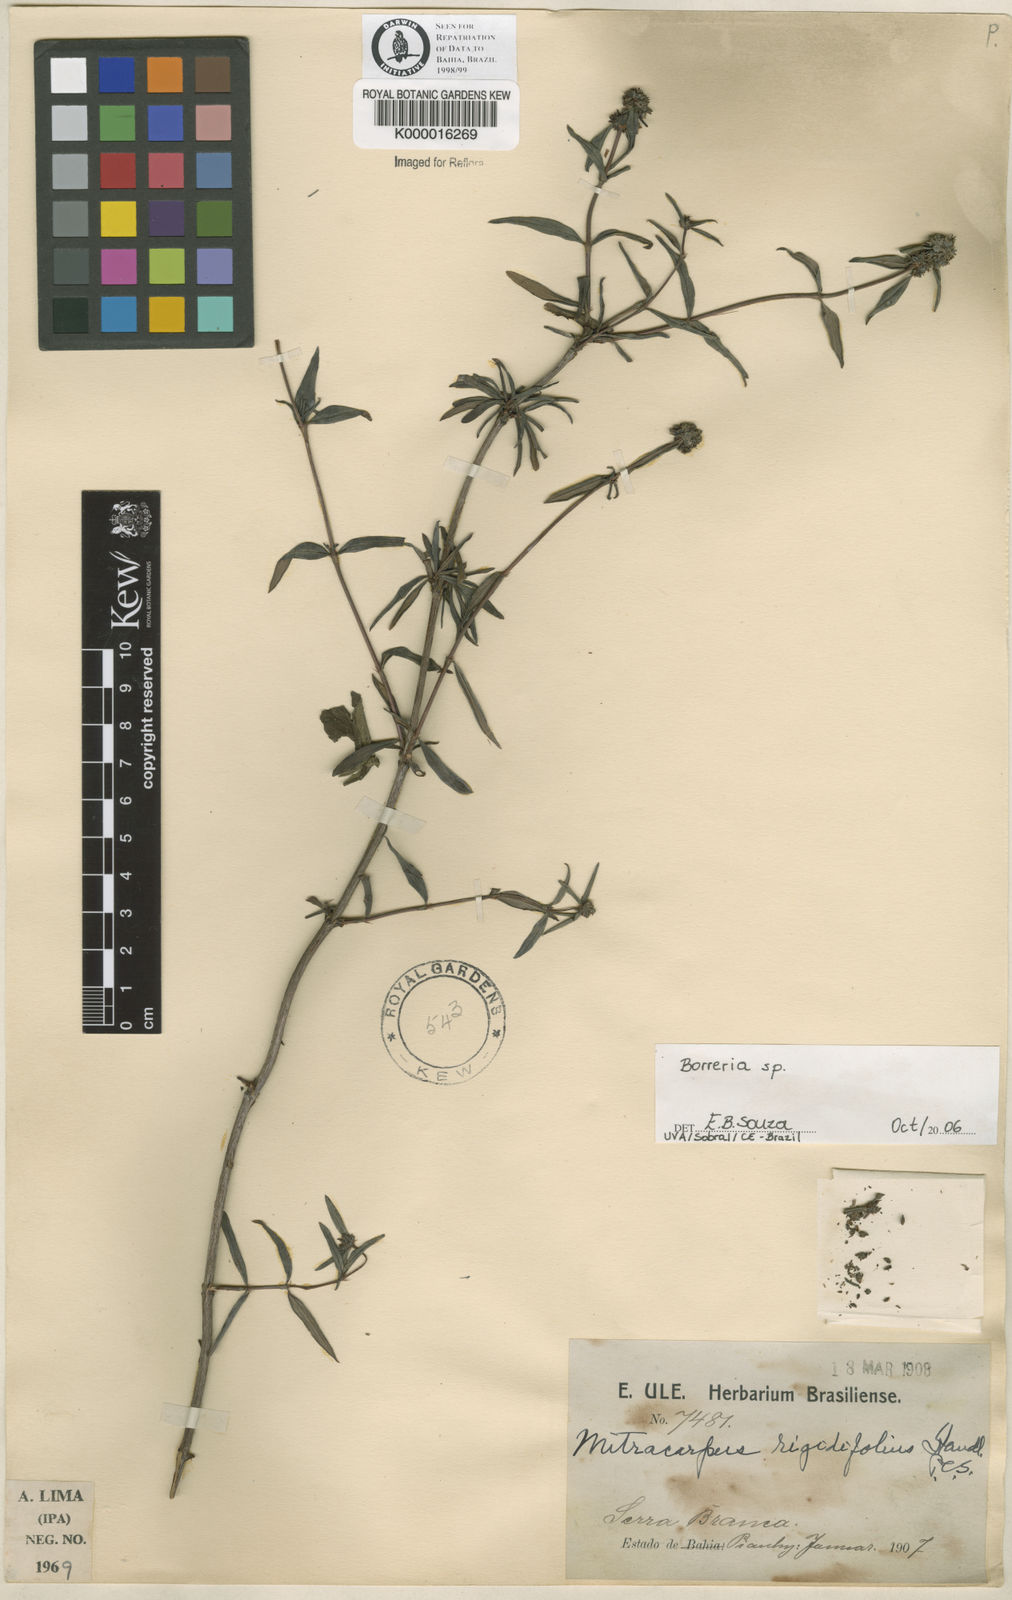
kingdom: Plantae
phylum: Tracheophyta
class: Magnoliopsida
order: Gentianales
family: Rubiaceae
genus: Mitracarpus
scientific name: Mitracarpus rigidifolius
